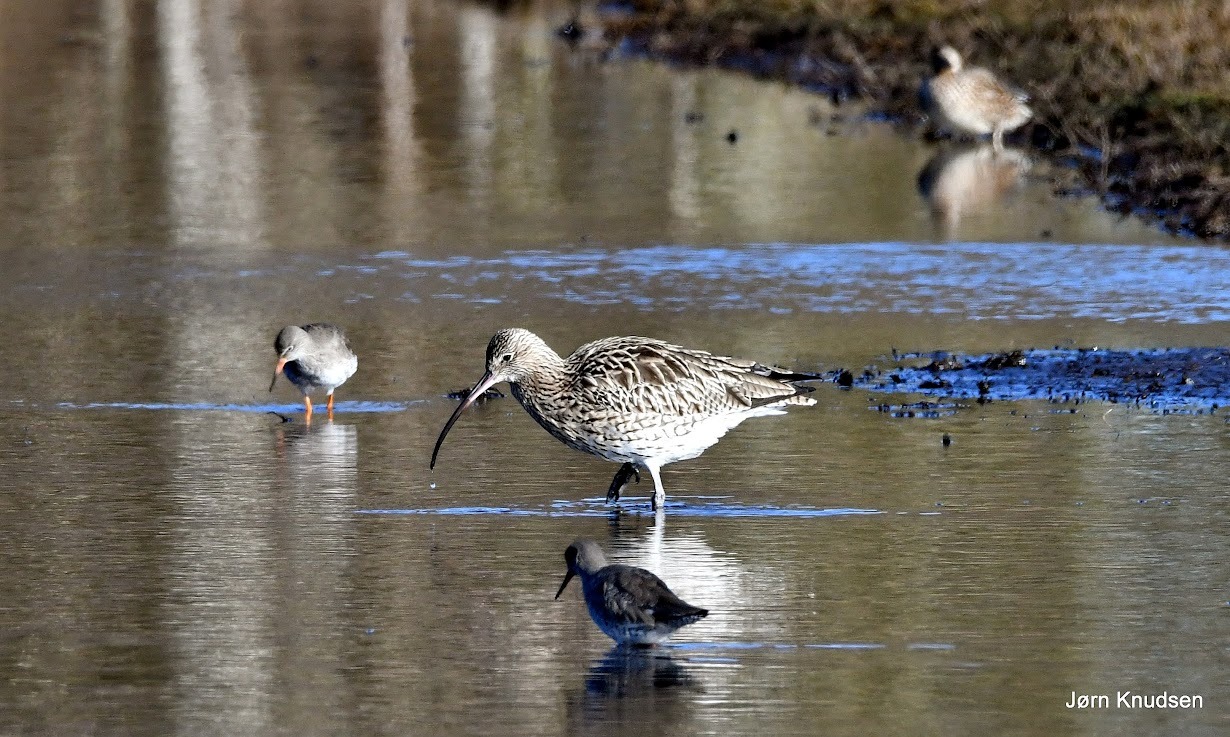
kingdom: Animalia
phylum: Chordata
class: Aves
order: Charadriiformes
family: Scolopacidae
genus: Numenius
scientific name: Numenius arquata
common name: Storspove
